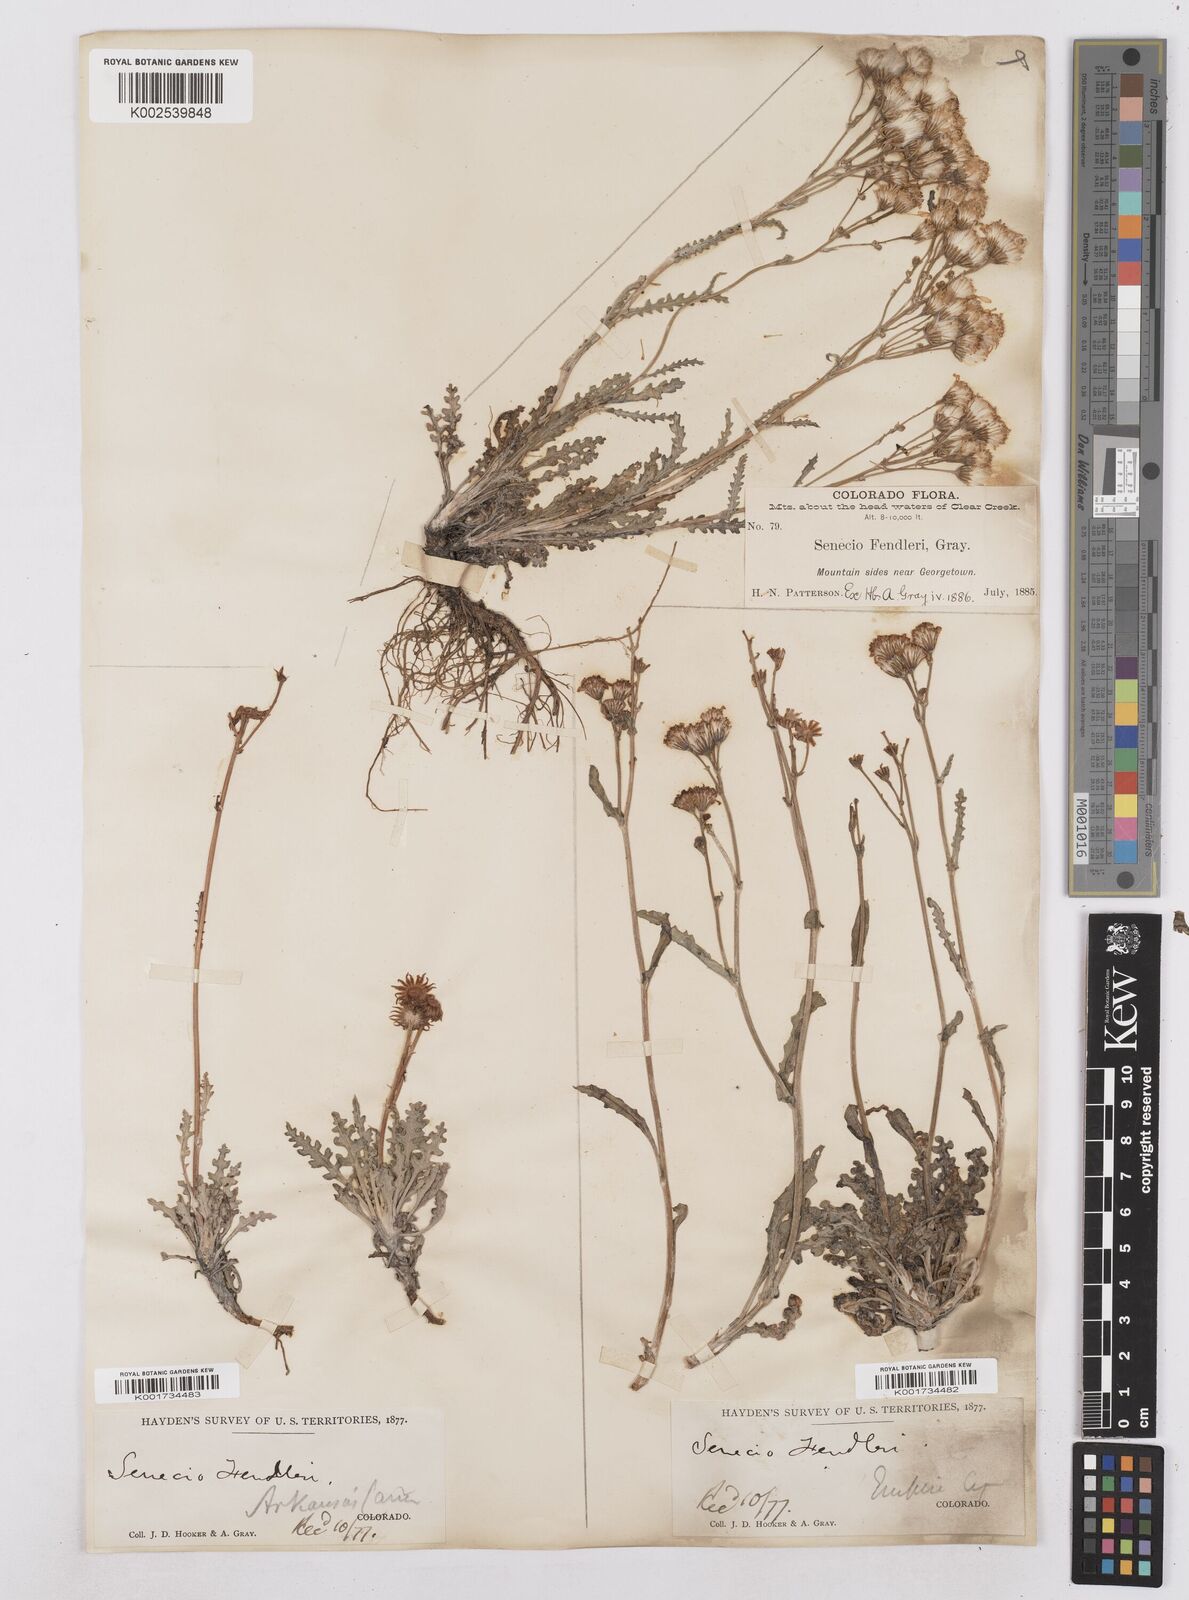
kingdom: Plantae
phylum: Tracheophyta
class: Magnoliopsida
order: Asterales
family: Asteraceae
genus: Packera
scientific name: Packera fendleri
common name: Notch-leaf butterweed
